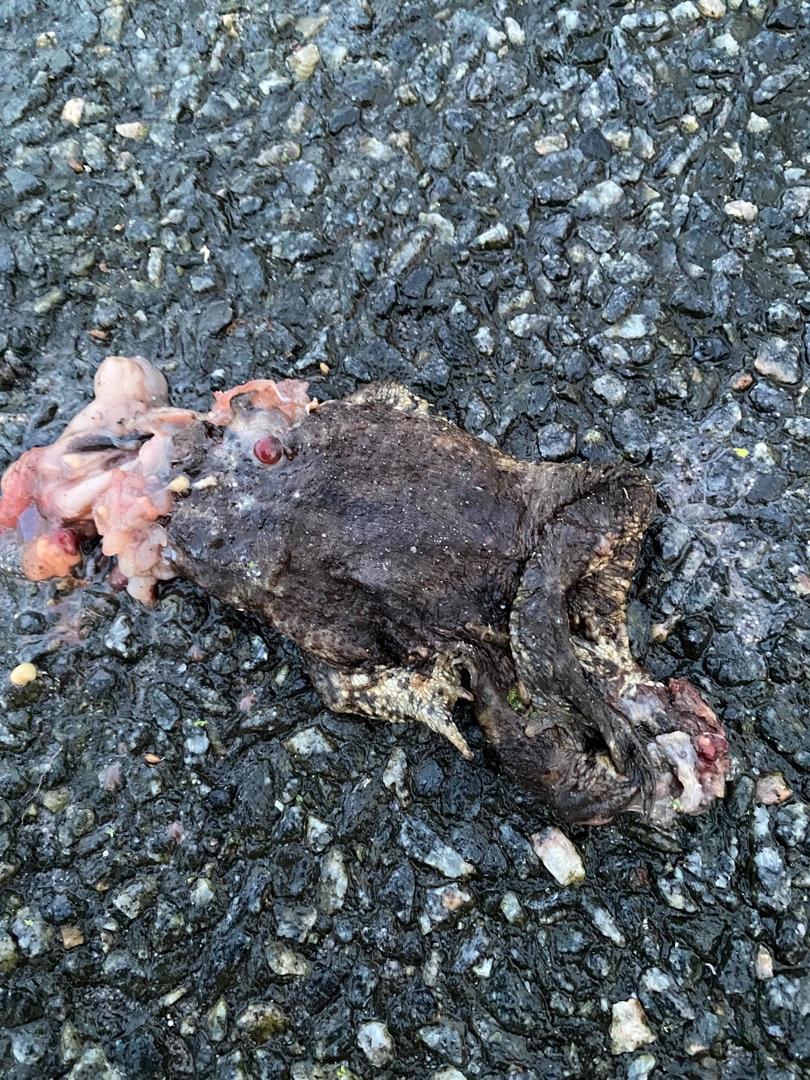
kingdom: Animalia
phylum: Chordata
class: Amphibia
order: Anura
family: Bufonidae
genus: Bufo
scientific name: Bufo bufo
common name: Skrubtudse
